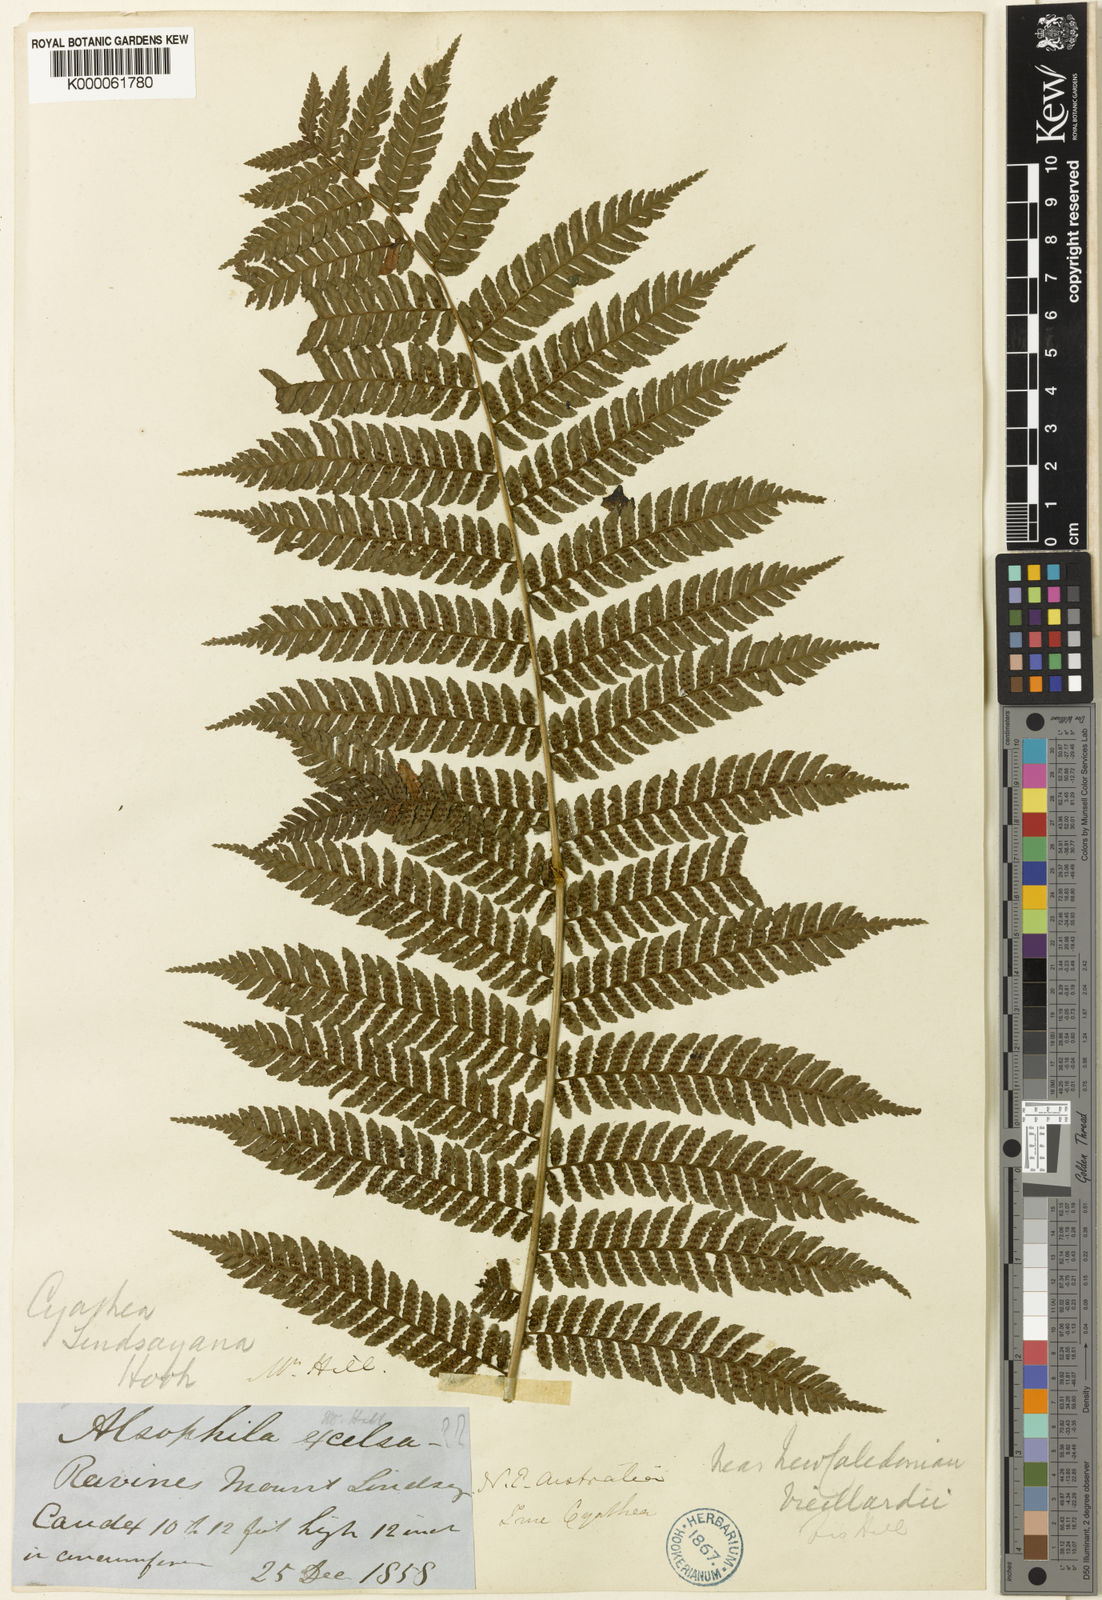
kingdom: Plantae
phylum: Tracheophyta
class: Polypodiopsida
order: Cyatheales
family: Cyatheaceae
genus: Alsophila
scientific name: Alsophila grevilleana
